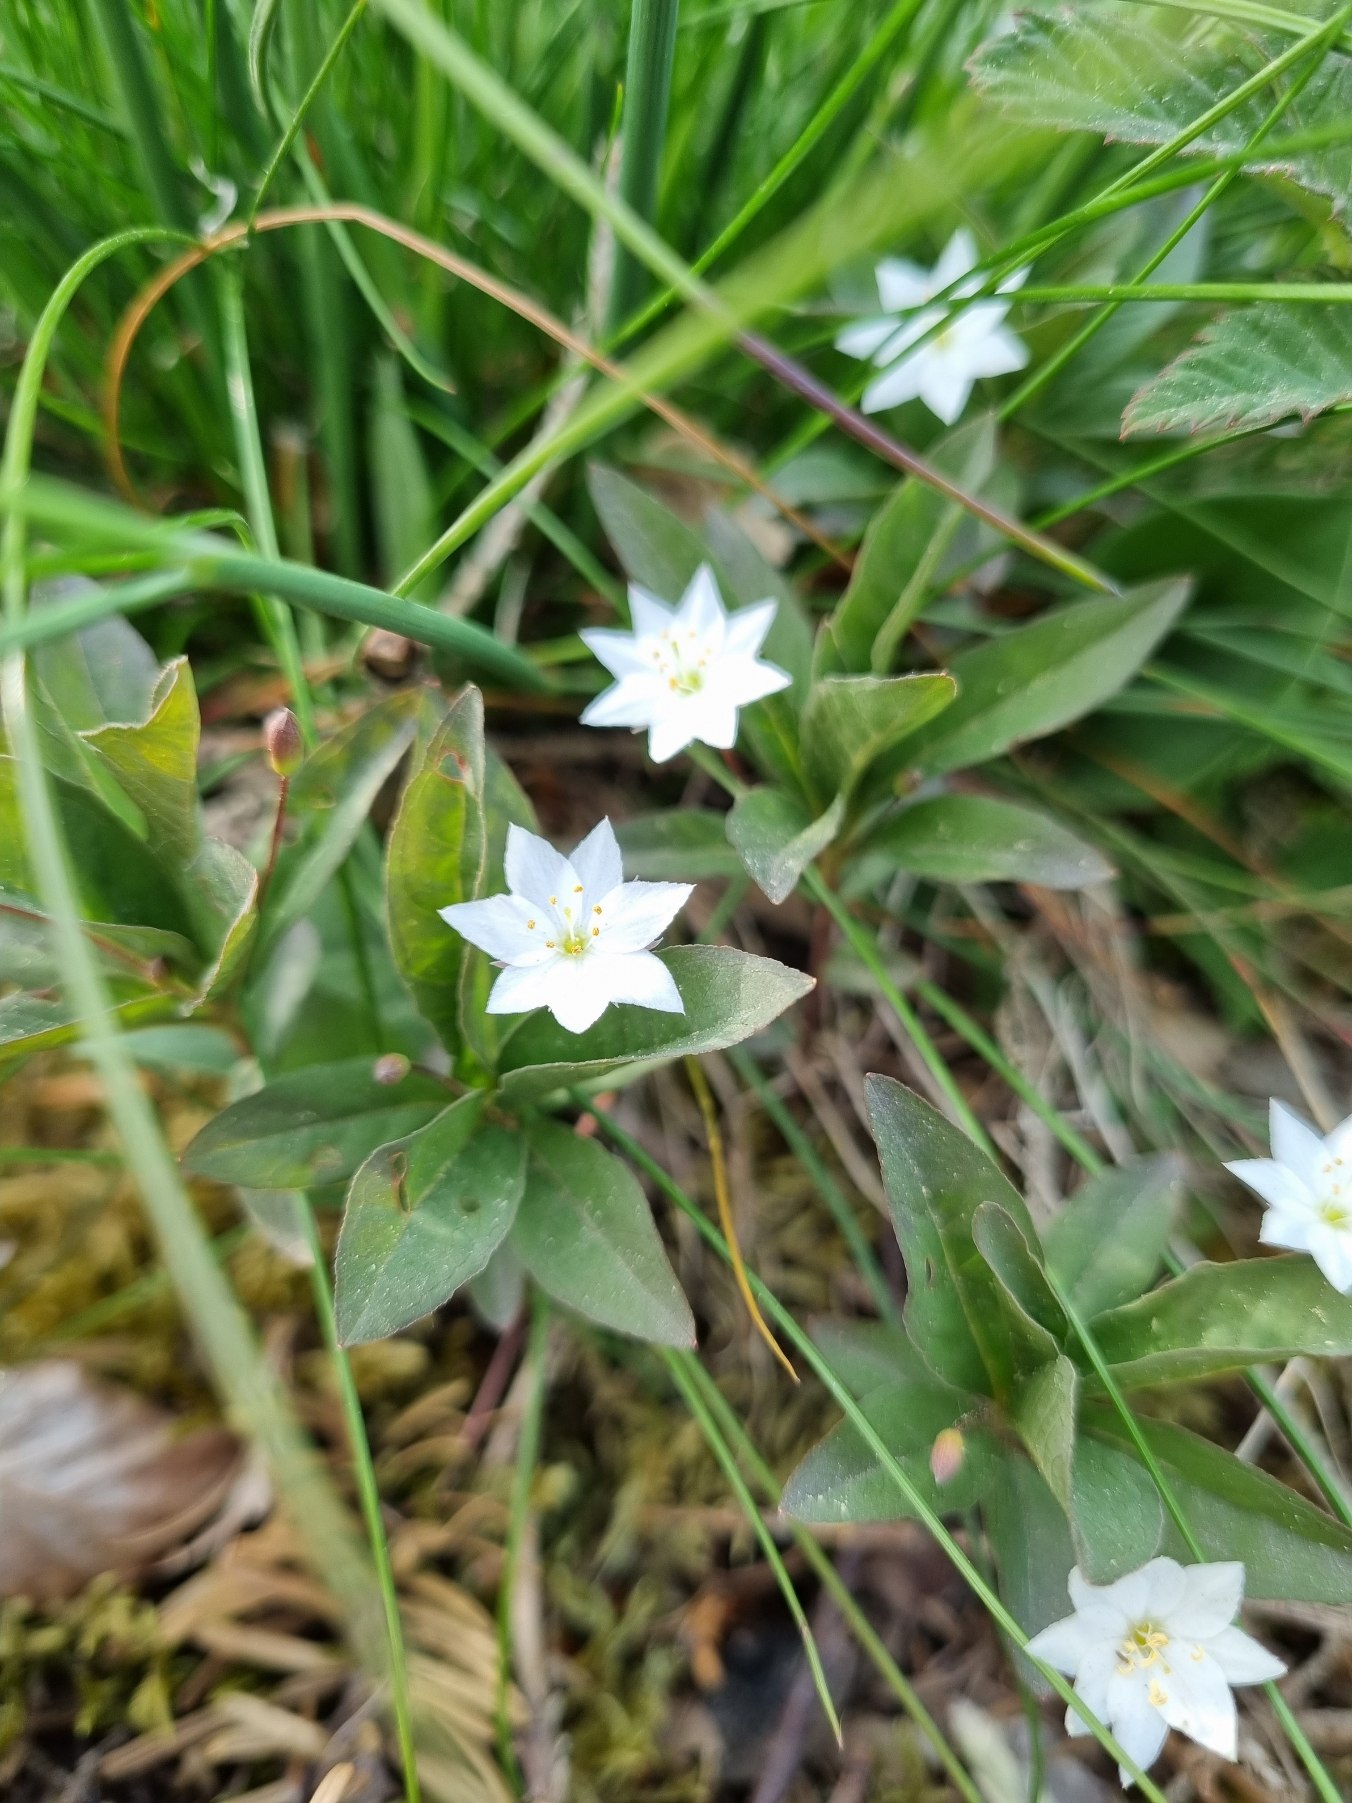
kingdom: Plantae
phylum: Tracheophyta
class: Magnoliopsida
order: Ericales
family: Primulaceae
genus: Lysimachia
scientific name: Lysimachia europaea
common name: Skovstjerne
